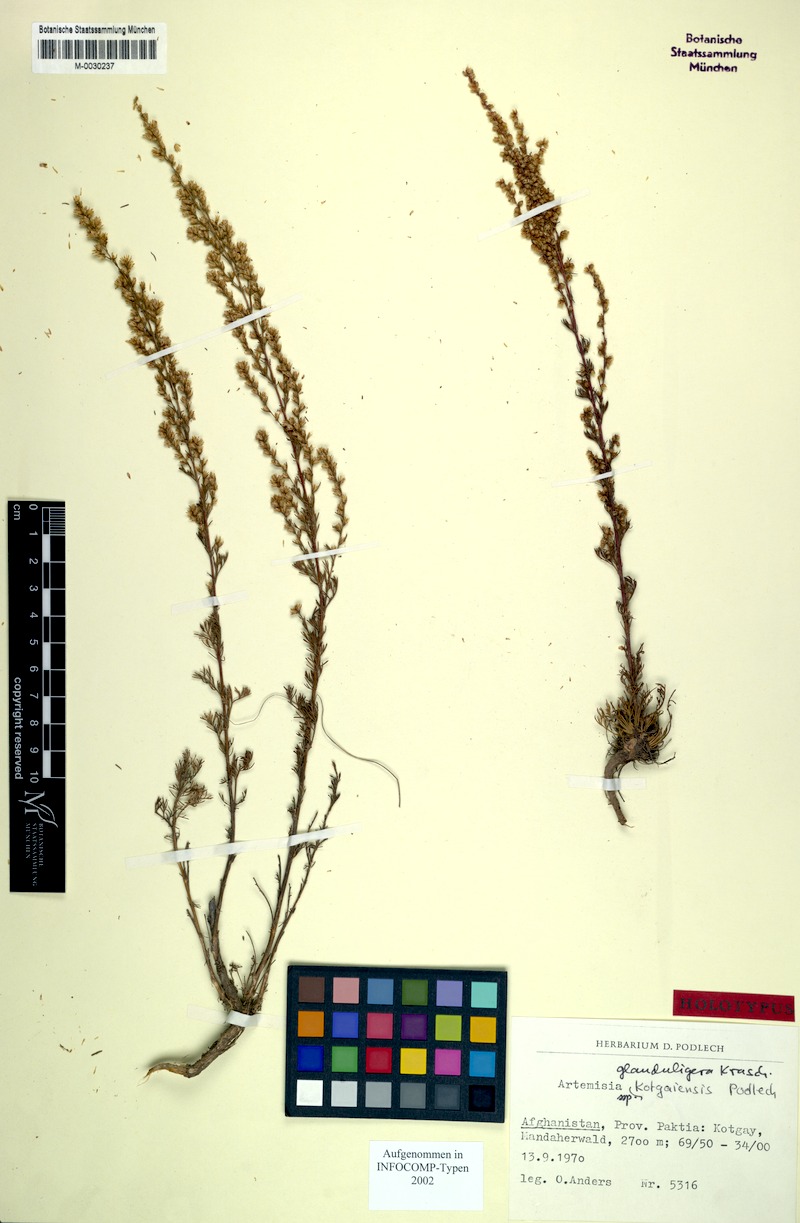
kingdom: Plantae
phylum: Tracheophyta
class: Magnoliopsida
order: Asterales
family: Asteraceae
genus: Artemisia
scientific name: Artemisia glanduligera
